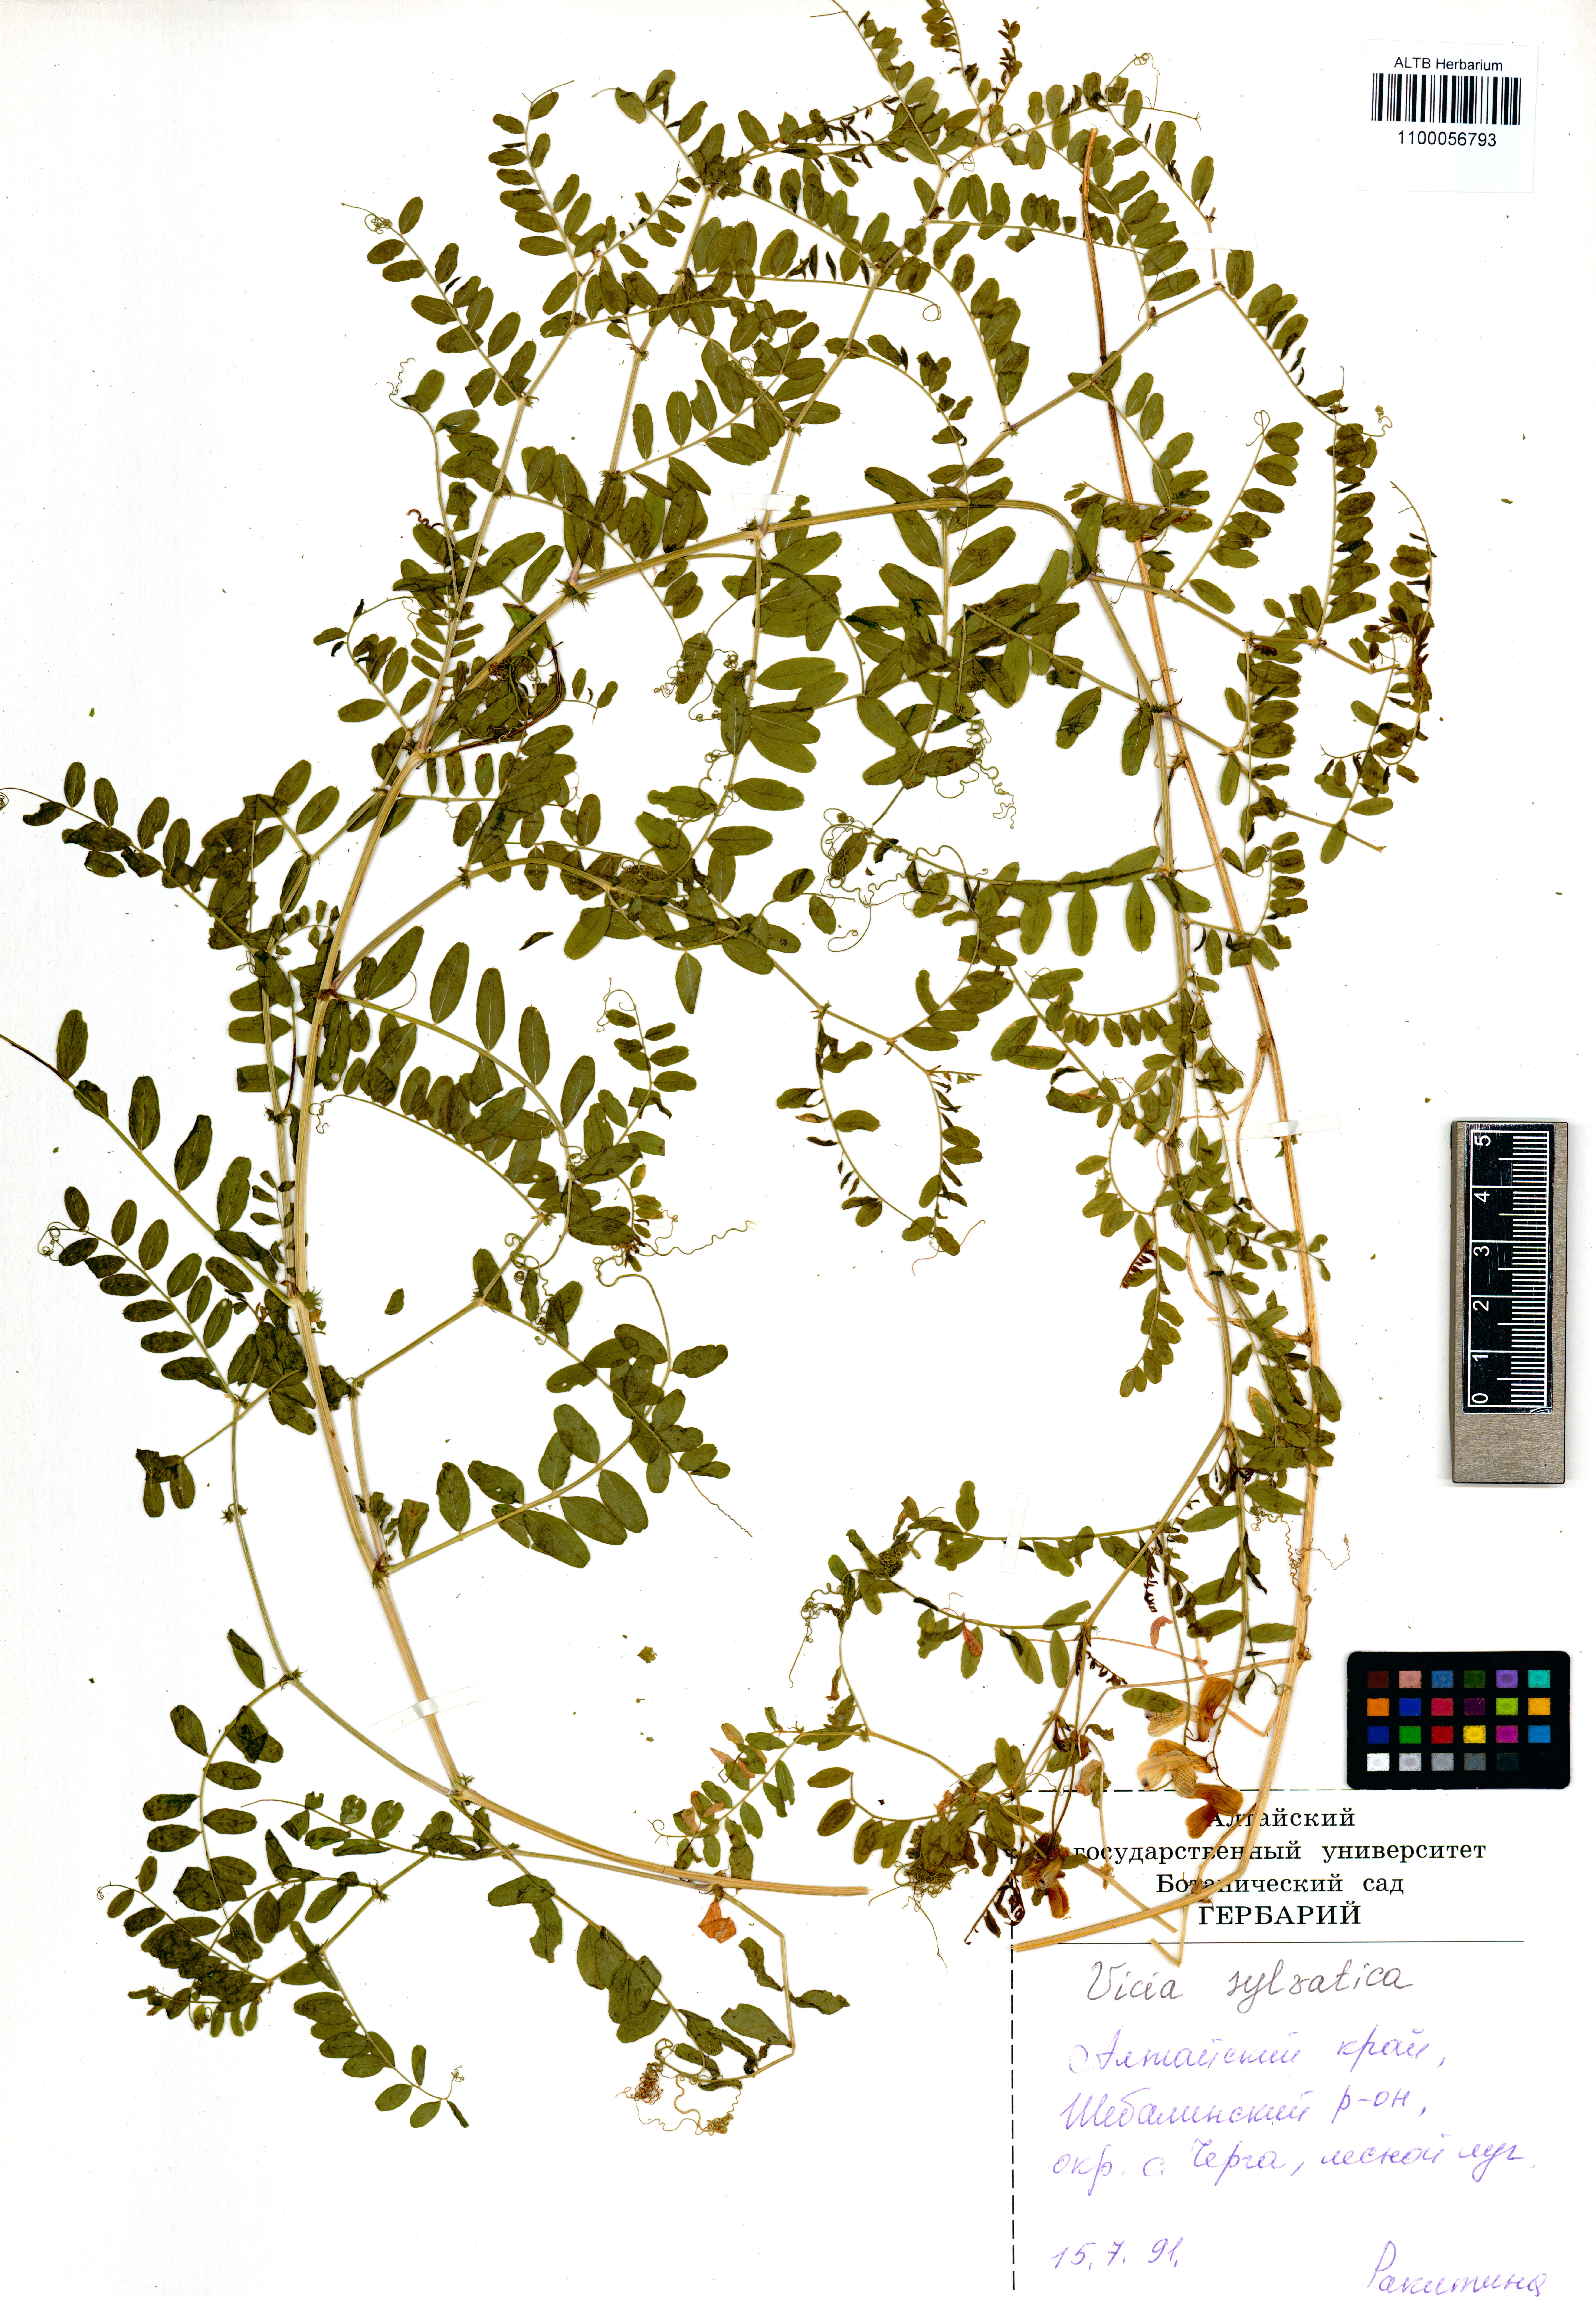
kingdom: Plantae
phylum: Tracheophyta
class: Magnoliopsida
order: Fabales
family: Fabaceae
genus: Vicia
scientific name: Vicia sylvatica
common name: Wood vetch
